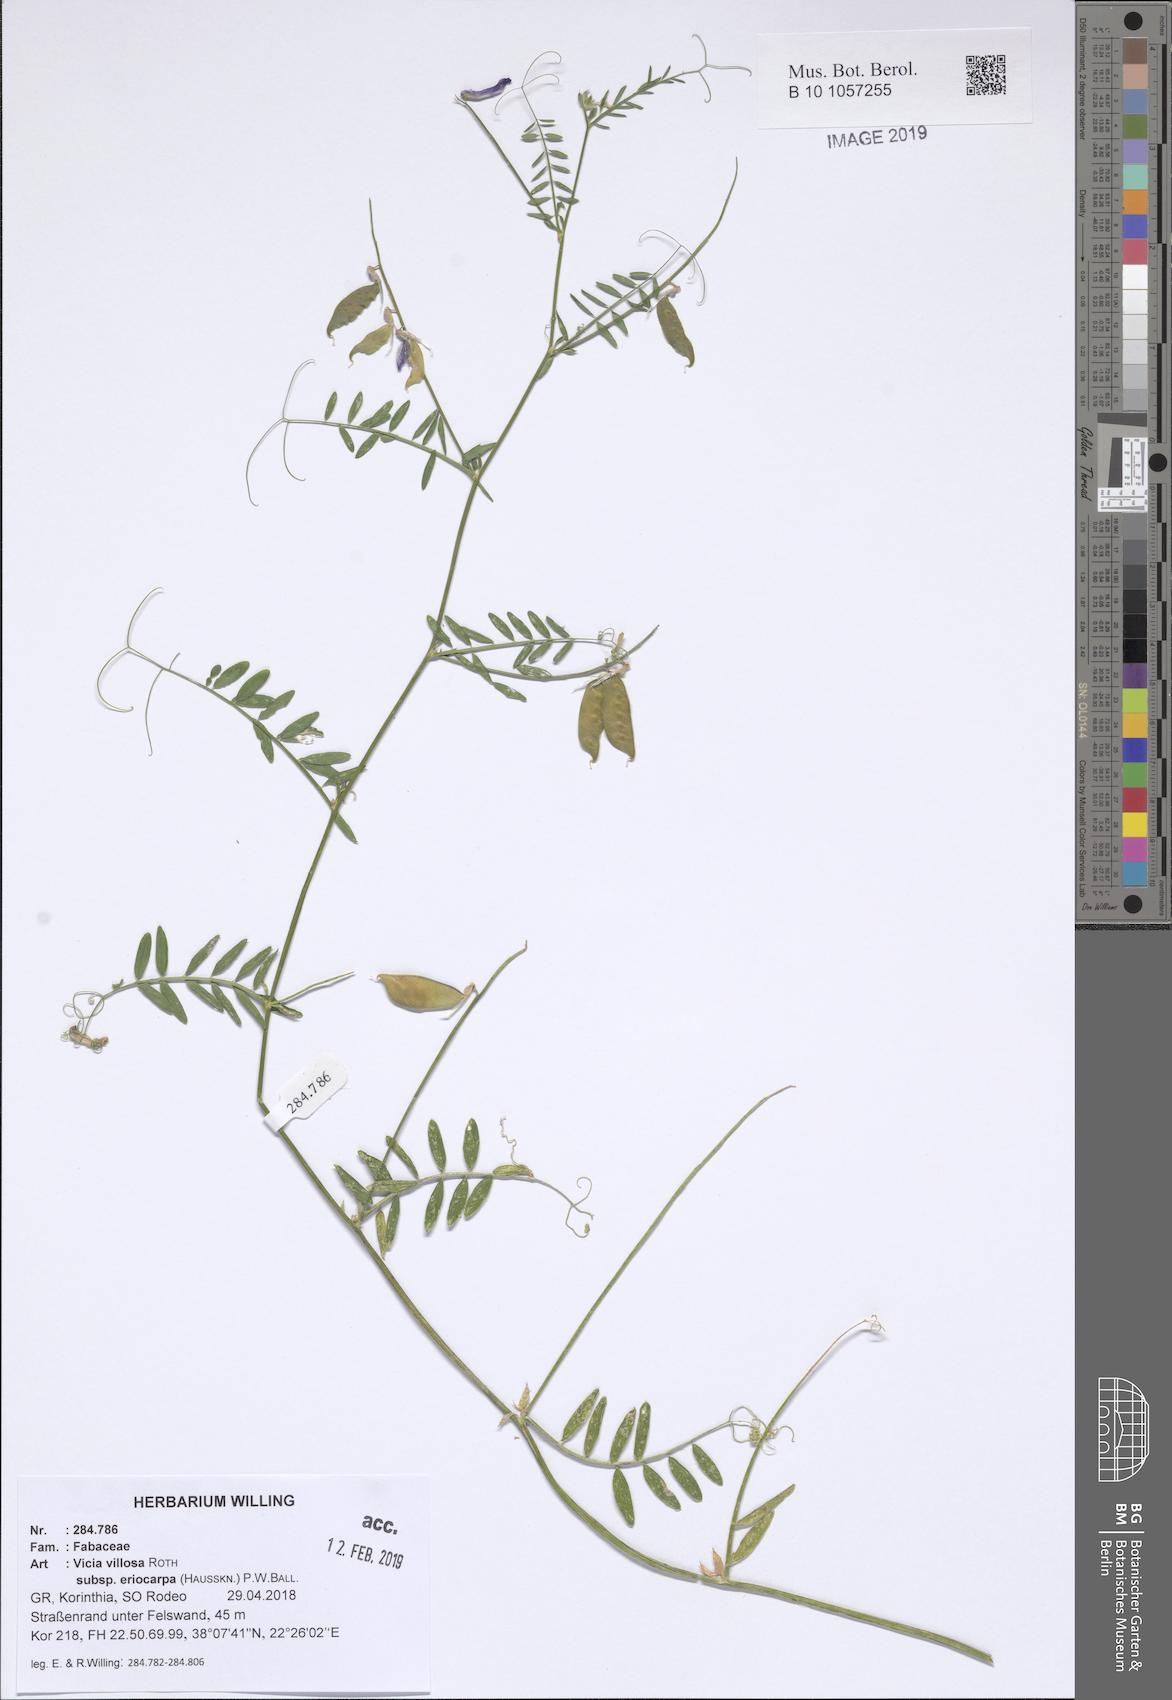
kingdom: Plantae
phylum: Tracheophyta
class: Magnoliopsida
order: Fabales
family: Fabaceae
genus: Vicia
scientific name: Vicia eriocarpa
